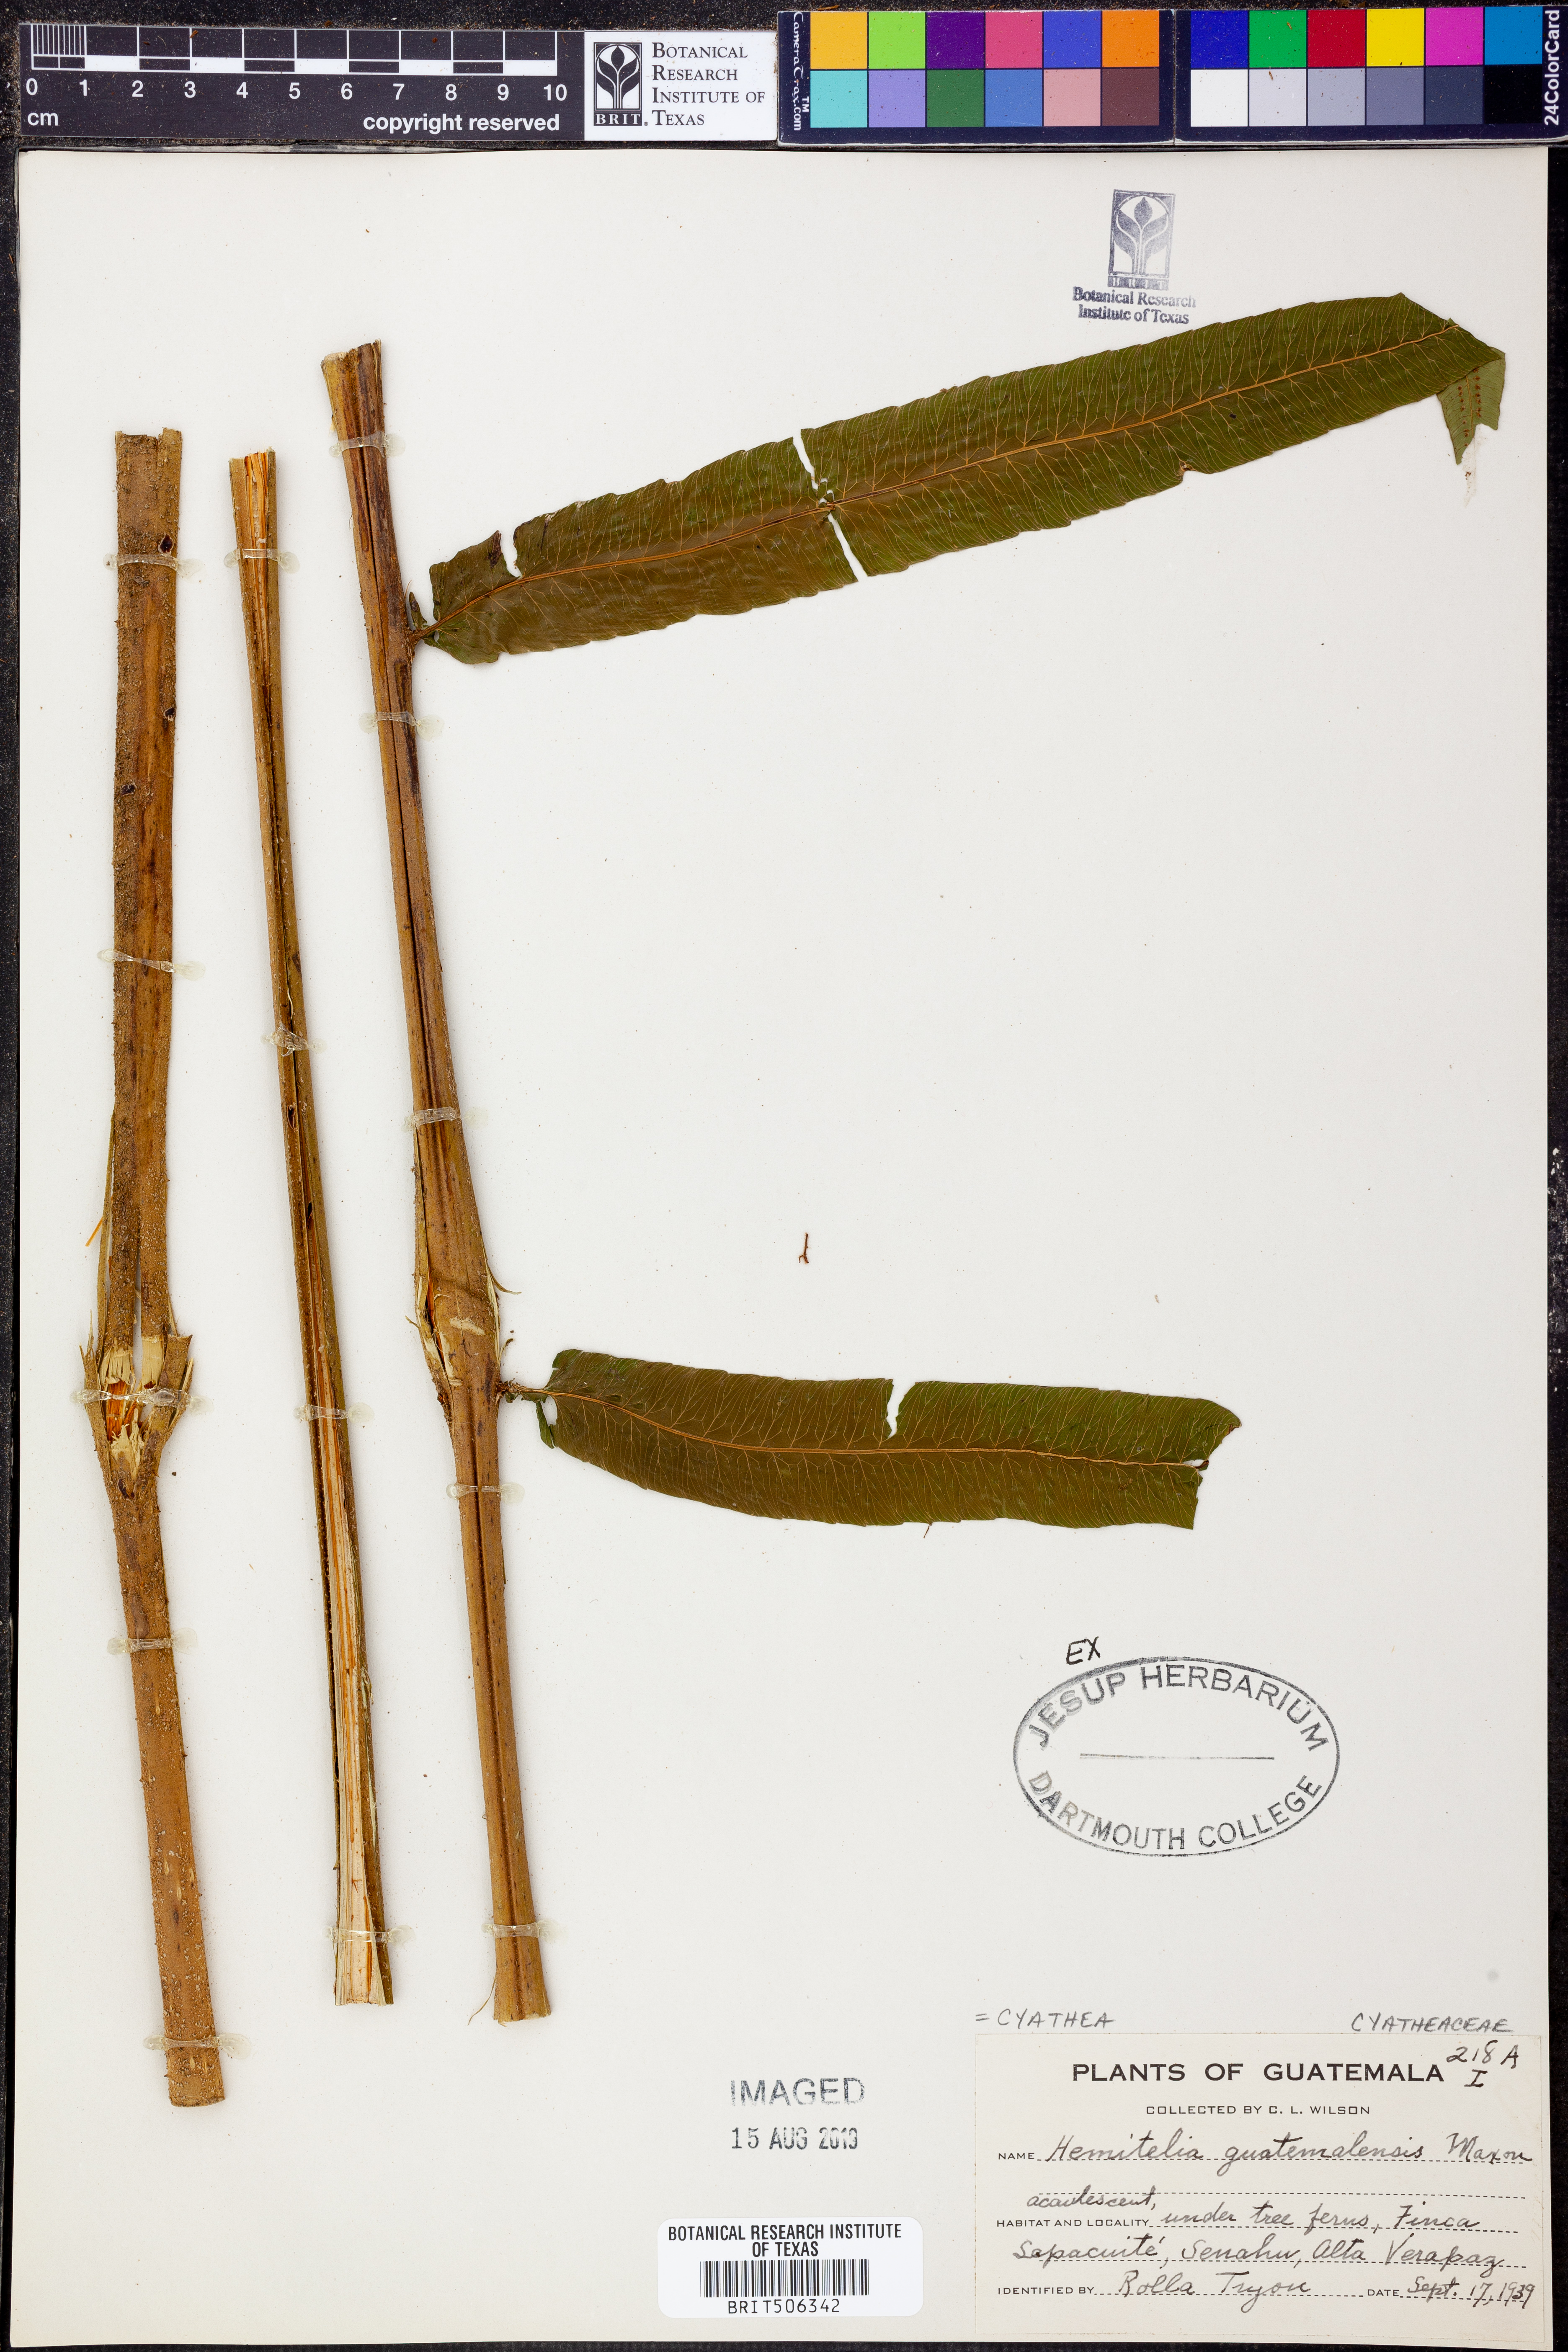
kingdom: Plantae
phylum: Tracheophyta
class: Polypodiopsida
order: Cyatheales
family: Cyatheaceae
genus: Cyathea
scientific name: Cyathea liebmannii
